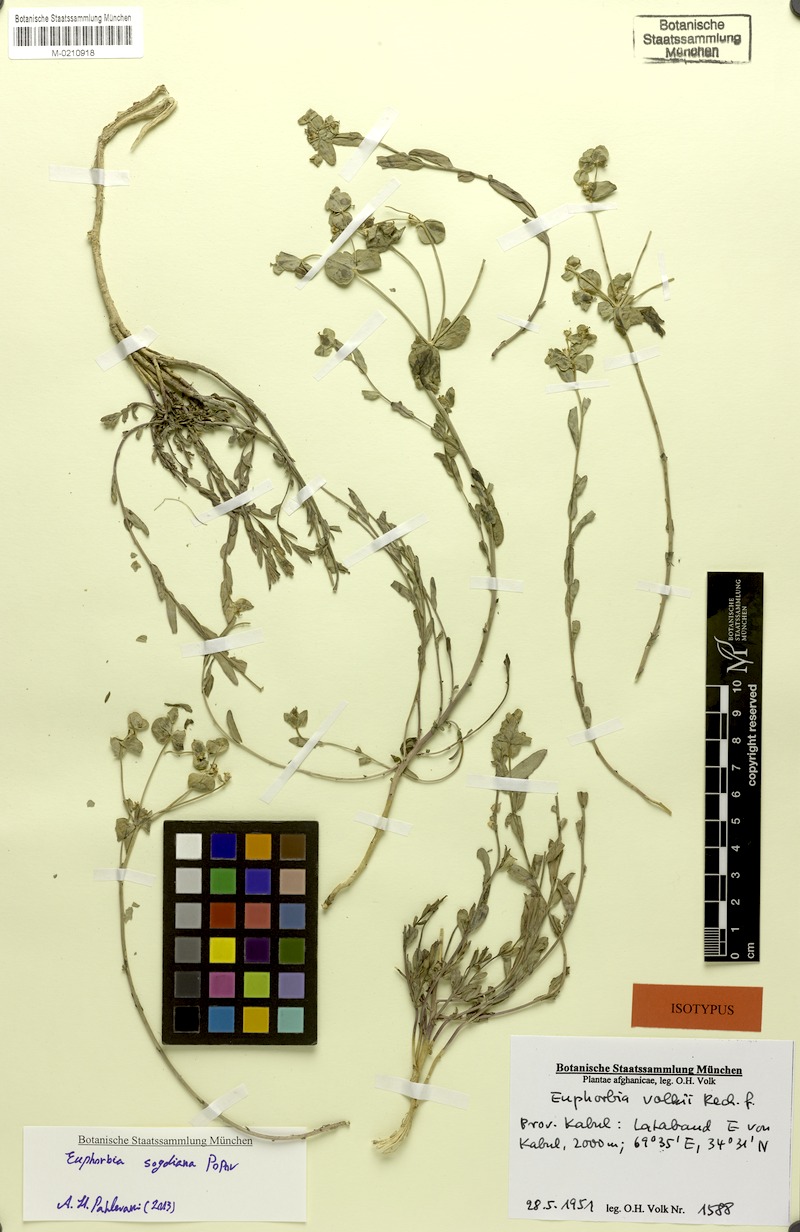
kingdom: Plantae
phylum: Tracheophyta
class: Magnoliopsida
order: Malpighiales
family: Euphorbiaceae
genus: Euphorbia
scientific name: Euphorbia sogdiana
